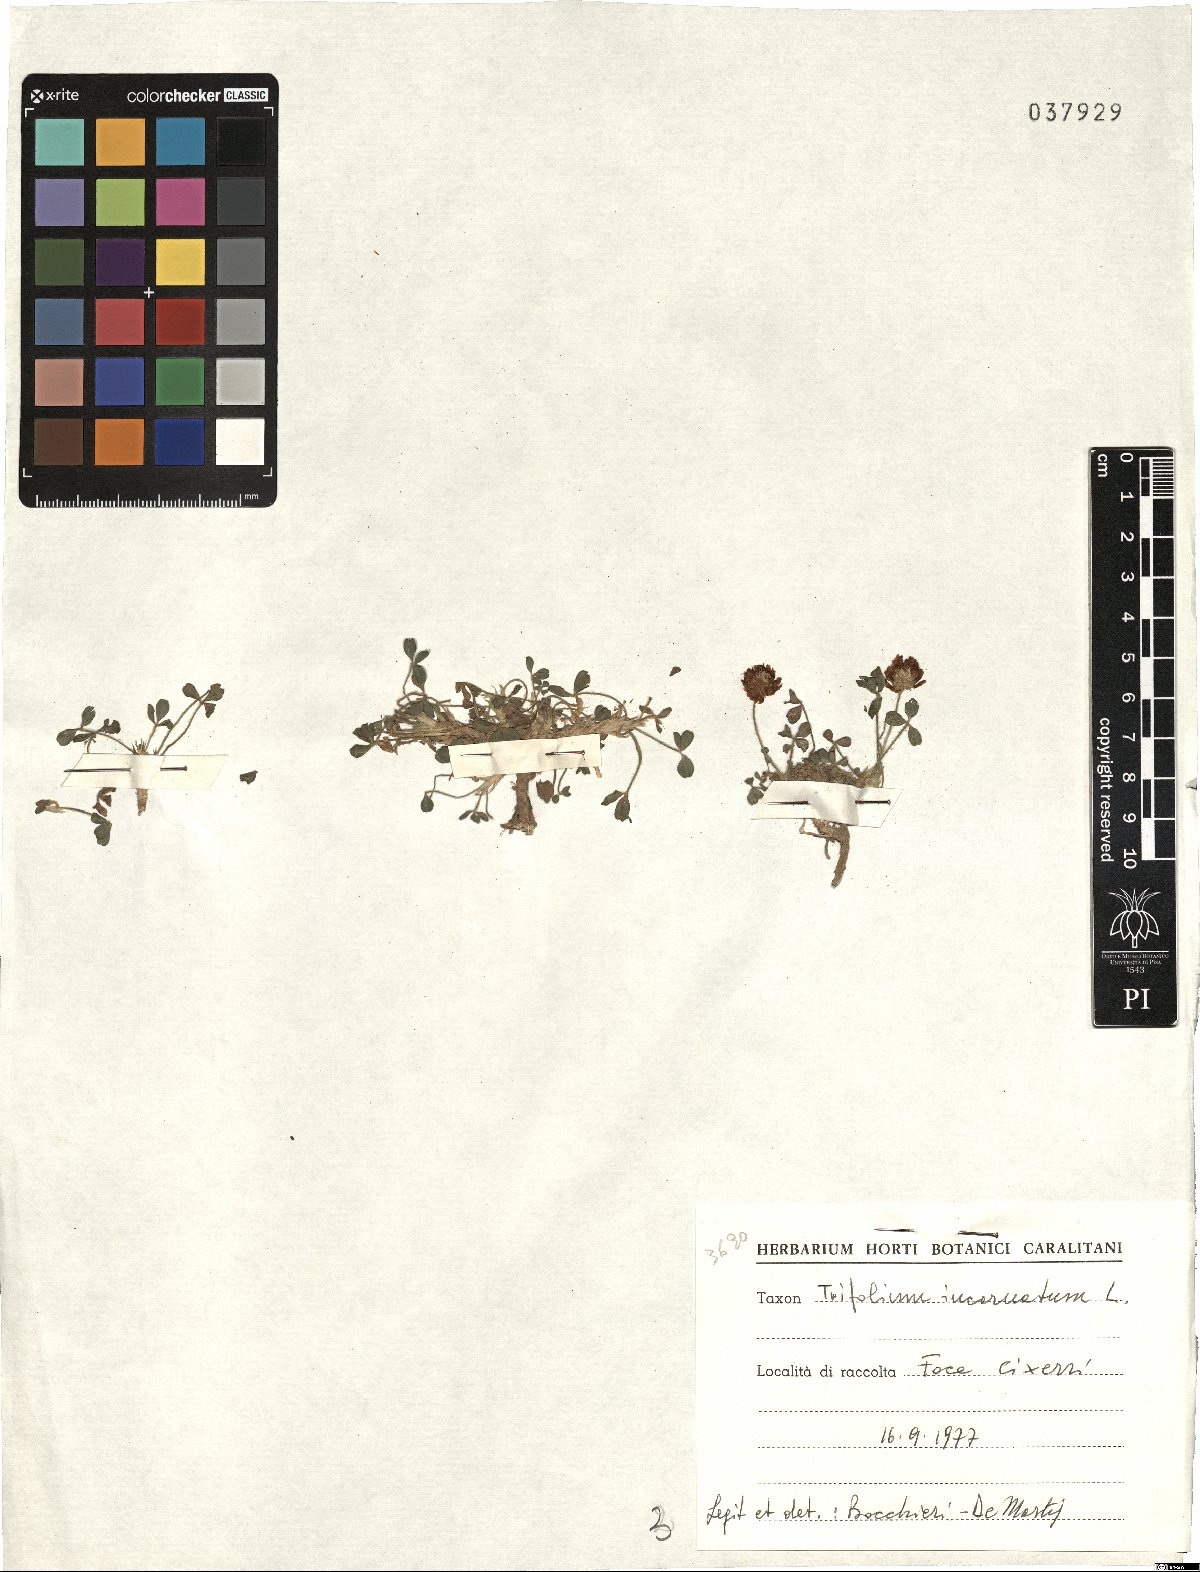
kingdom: Plantae
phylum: Tracheophyta
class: Magnoliopsida
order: Fabales
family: Fabaceae
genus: Trifolium
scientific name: Trifolium incarnatum
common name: Crimson clover
